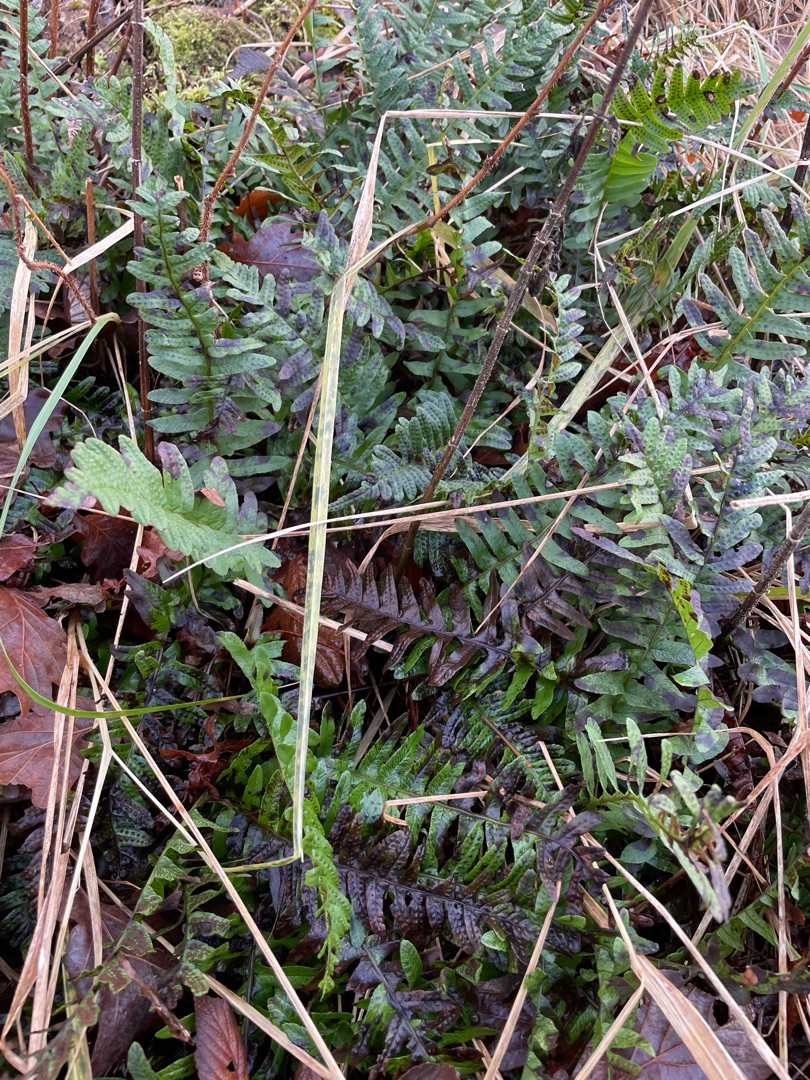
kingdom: Plantae
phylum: Tracheophyta
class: Polypodiopsida
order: Polypodiales
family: Polypodiaceae
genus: Polypodium
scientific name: Polypodium vulgare
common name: Almindelig engelsød
